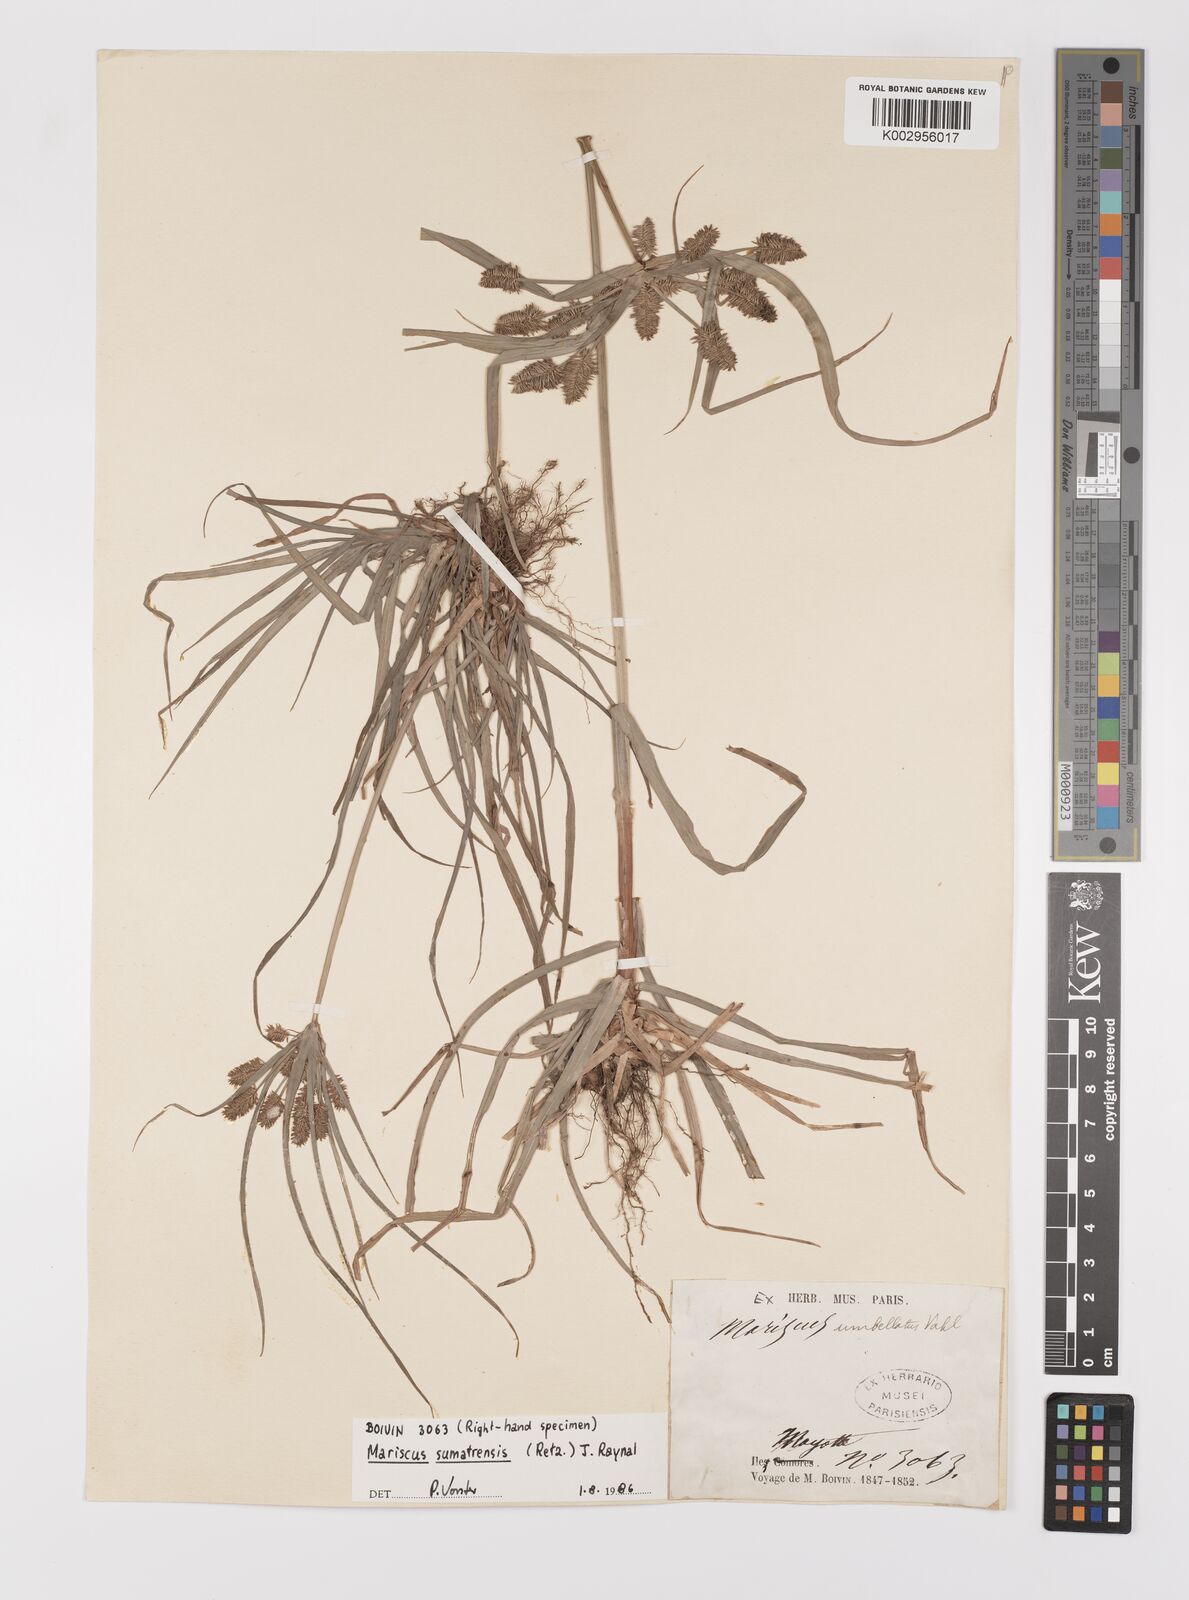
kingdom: Plantae
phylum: Tracheophyta
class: Liliopsida
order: Poales
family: Cyperaceae
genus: Cyperus
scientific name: Cyperus cyperoides
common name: Pacific island flat sedge
